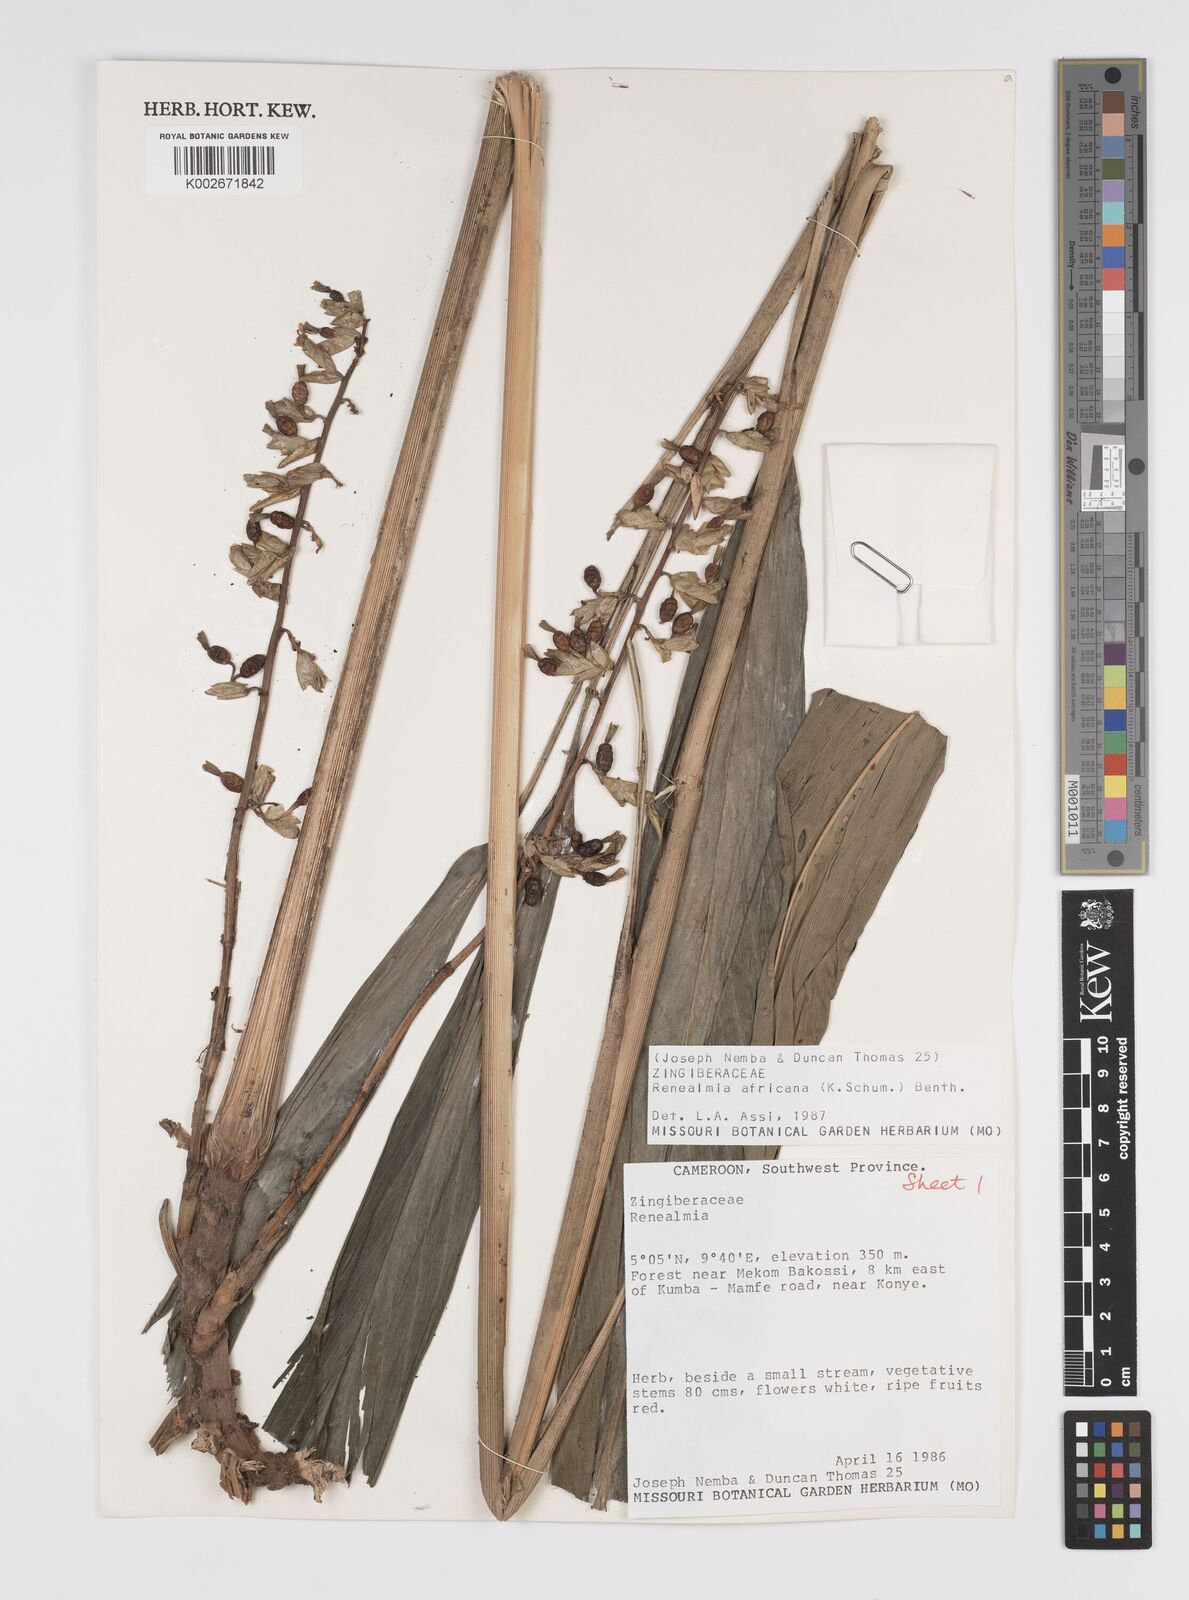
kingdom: Plantae
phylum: Tracheophyta
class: Liliopsida
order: Zingiberales
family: Zingiberaceae
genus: Renealmia
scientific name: Renealmia africana
